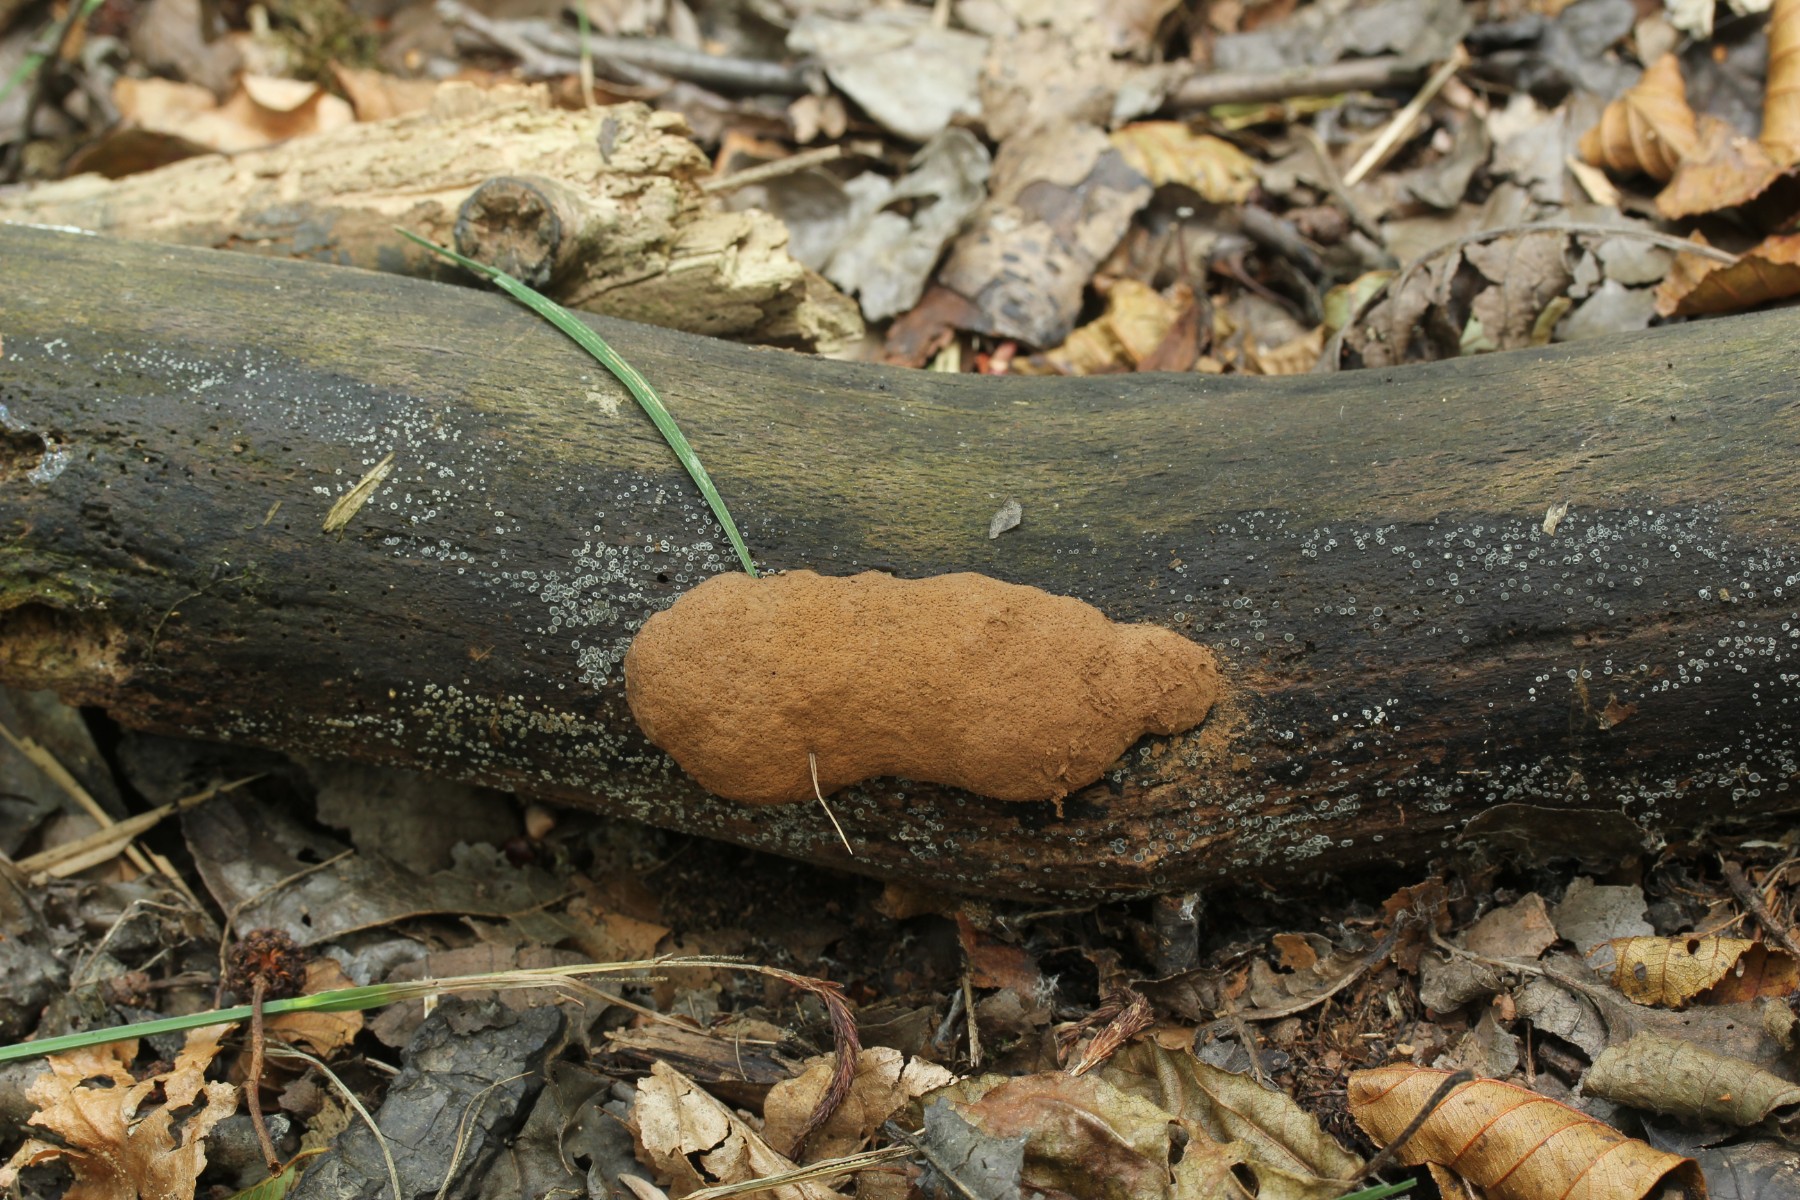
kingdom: Protozoa
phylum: Mycetozoa
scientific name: Mycetozoa
